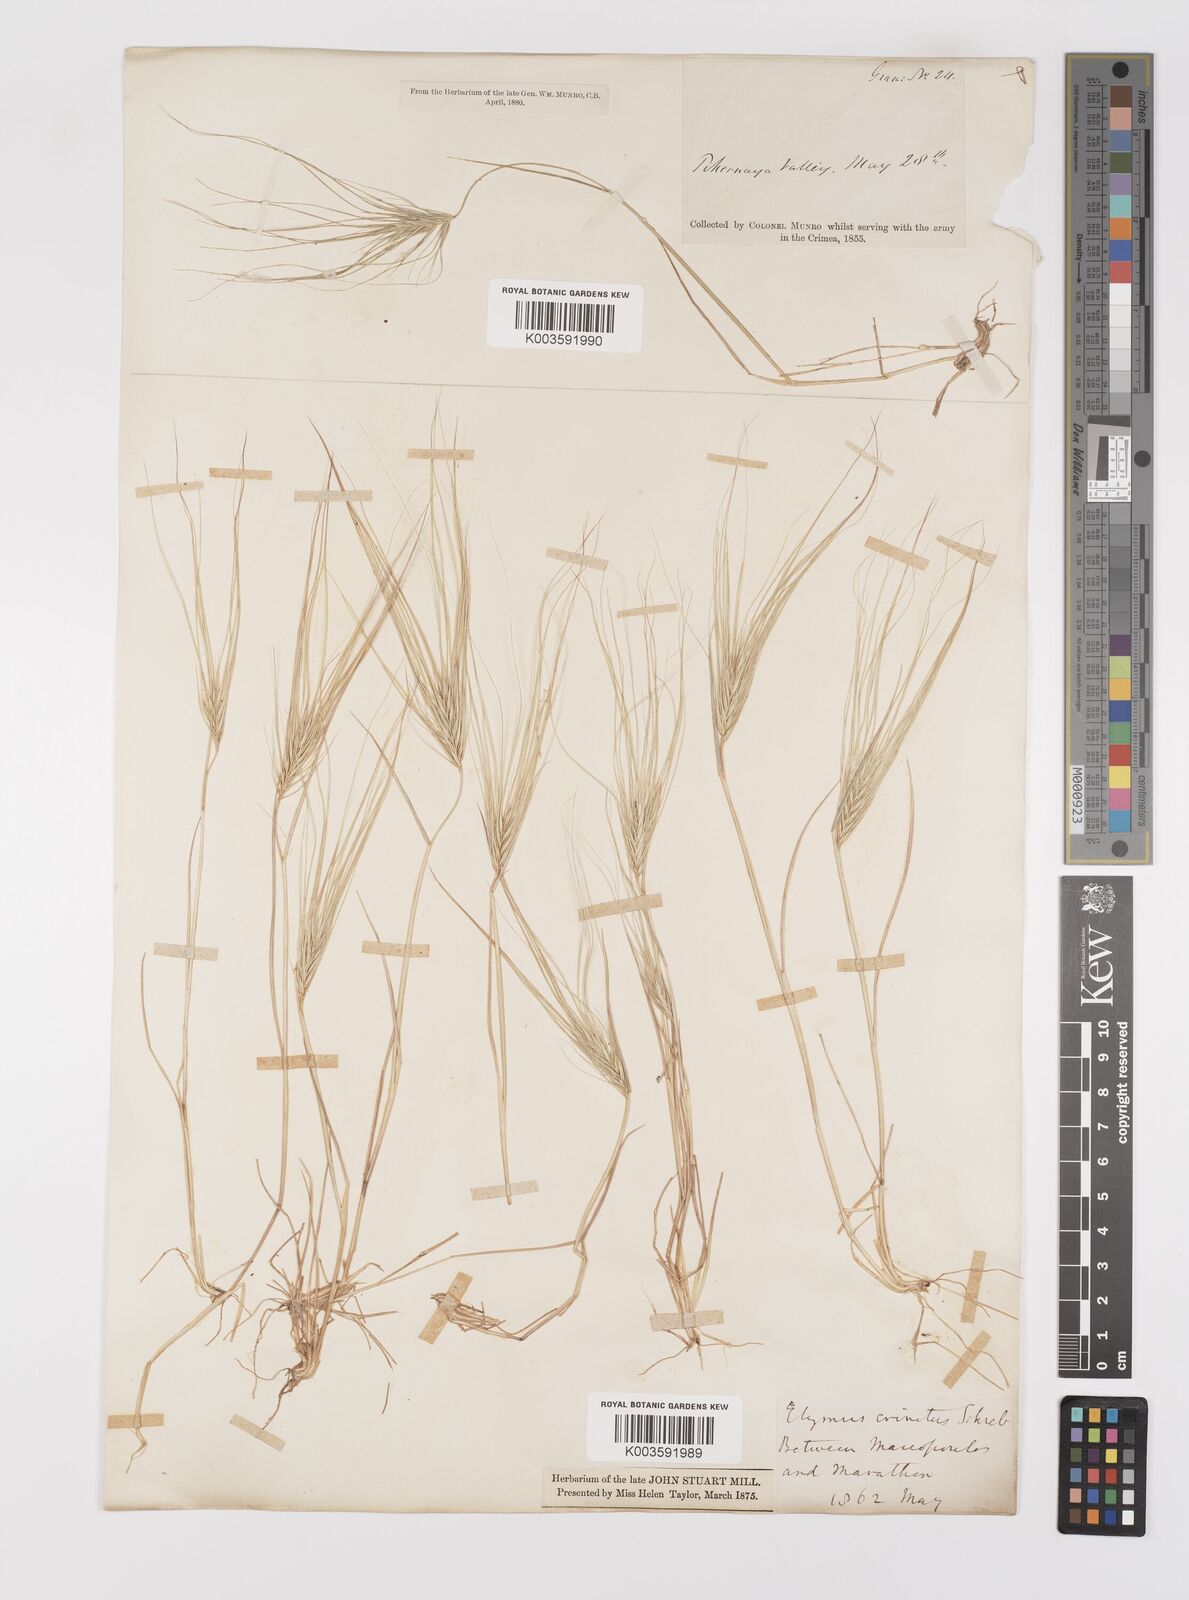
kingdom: Plantae
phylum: Tracheophyta
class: Liliopsida
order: Poales
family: Poaceae
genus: Taeniatherum
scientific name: Taeniatherum caput-medusae
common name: Medusahead
